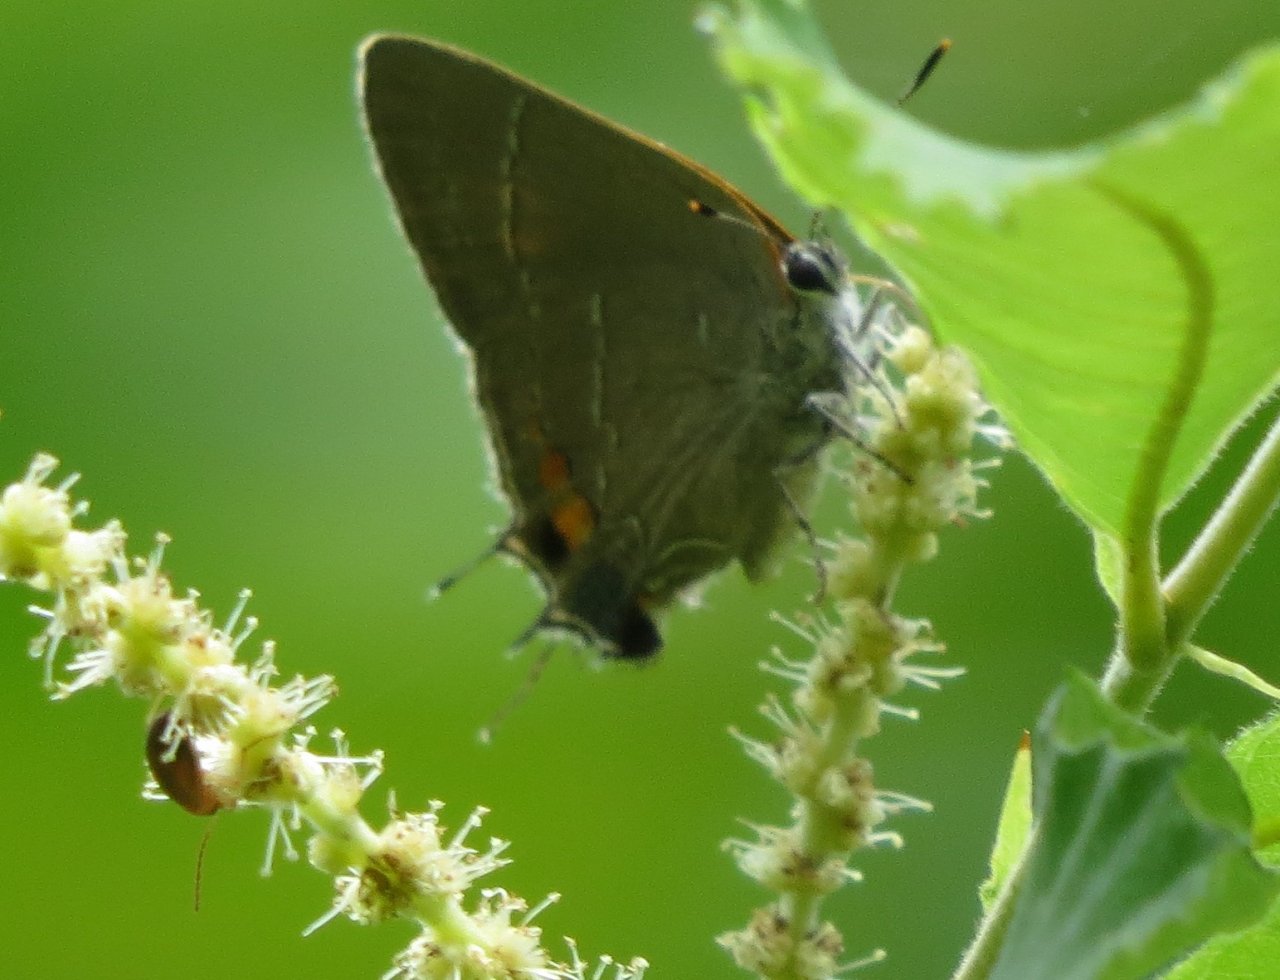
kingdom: Animalia
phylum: Arthropoda
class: Insecta
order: Lepidoptera
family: Lycaenidae
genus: Parrhasius
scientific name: Parrhasius m-album
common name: White-m Hairstreak
